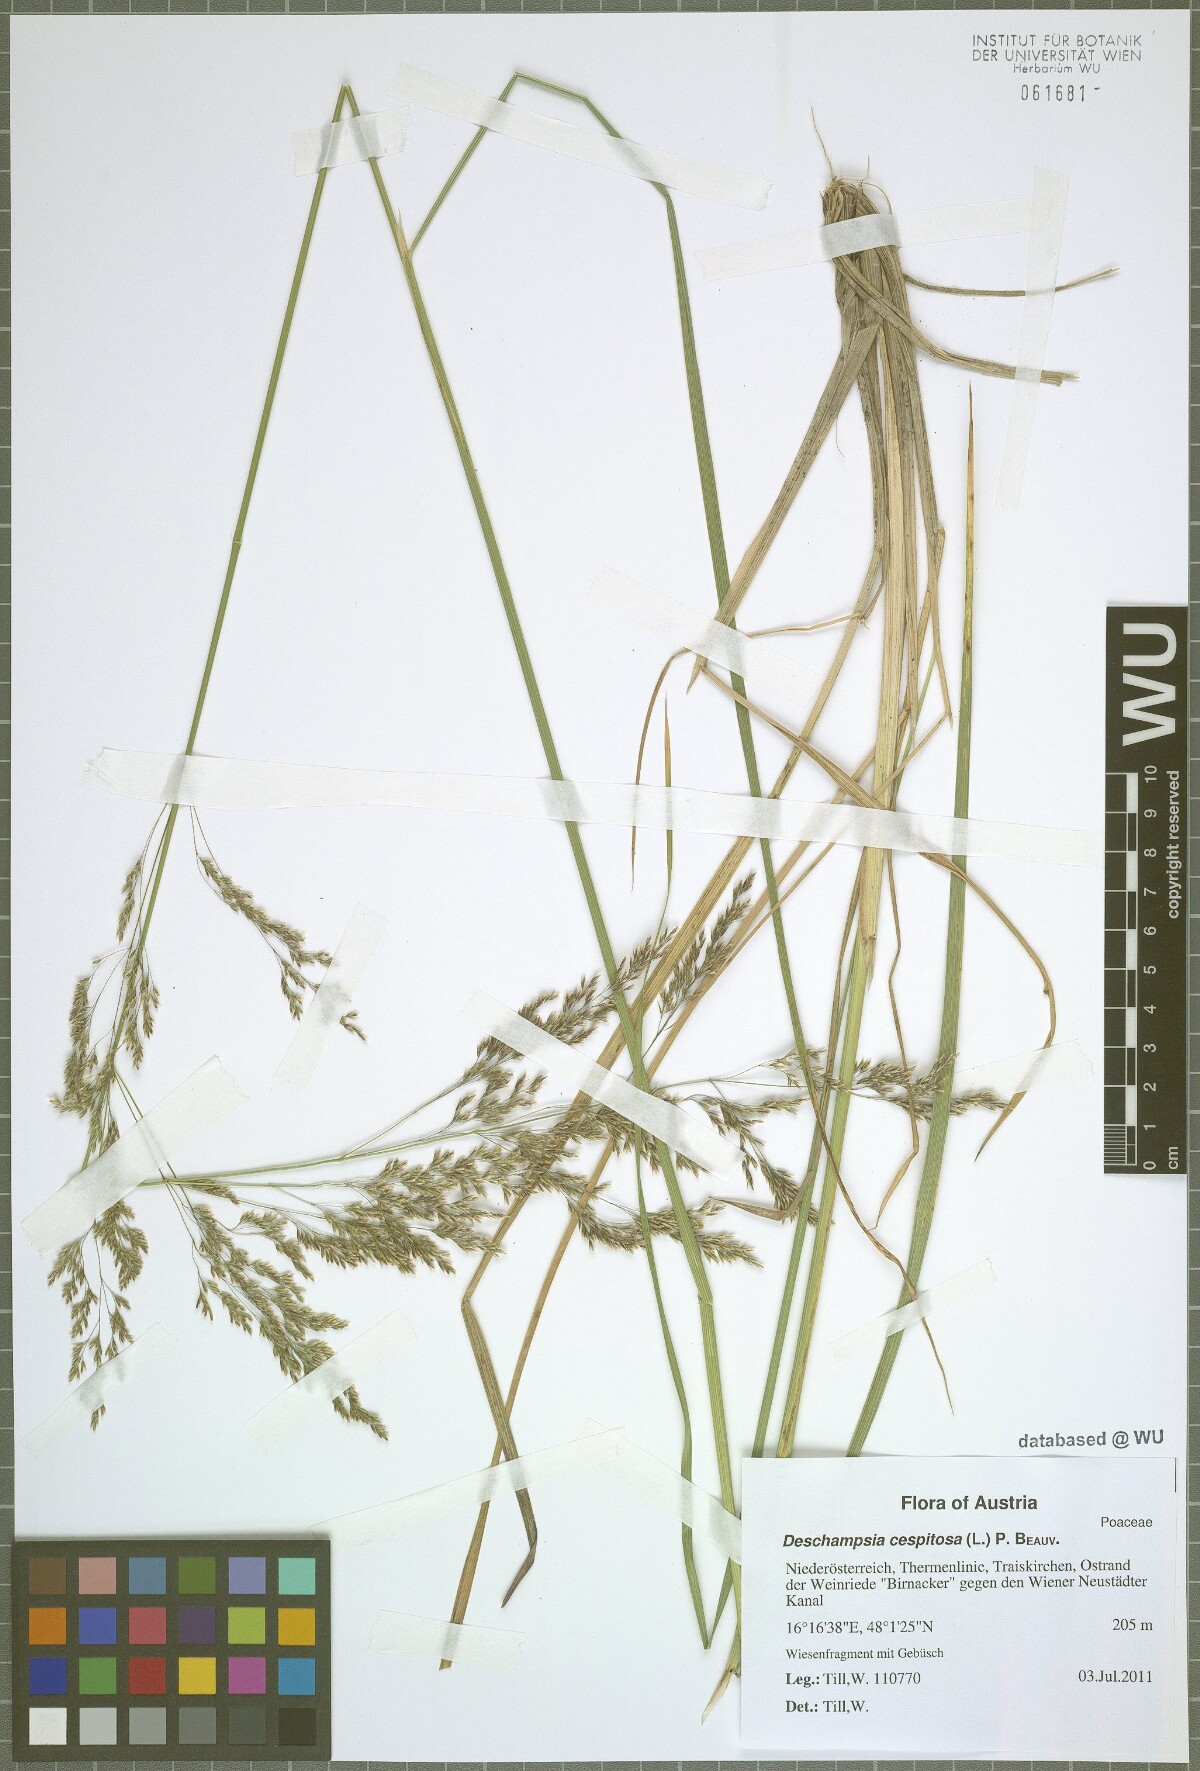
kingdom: Plantae
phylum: Tracheophyta
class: Liliopsida
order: Poales
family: Poaceae
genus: Deschampsia
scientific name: Deschampsia cespitosa
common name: Tufted hair-grass
